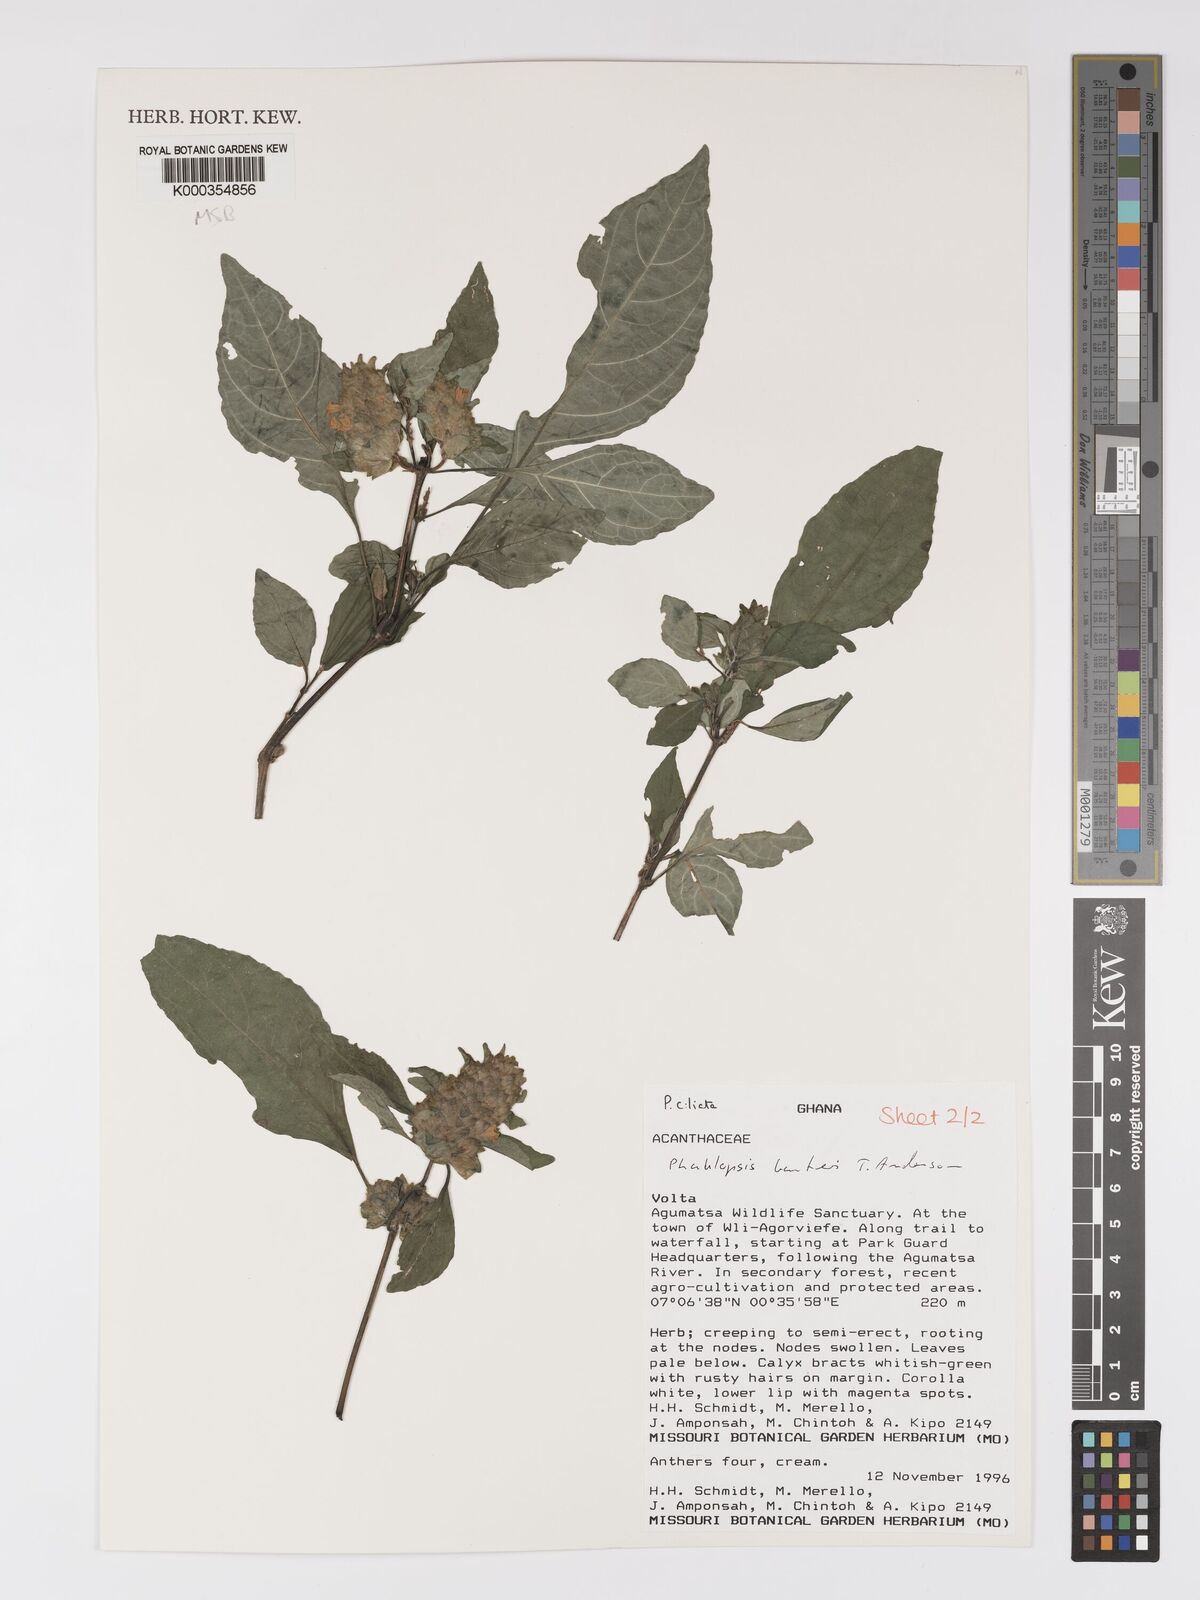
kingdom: Plantae
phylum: Tracheophyta
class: Magnoliopsida
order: Lamiales
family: Acanthaceae
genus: Phaulopsis
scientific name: Phaulopsis barteri
